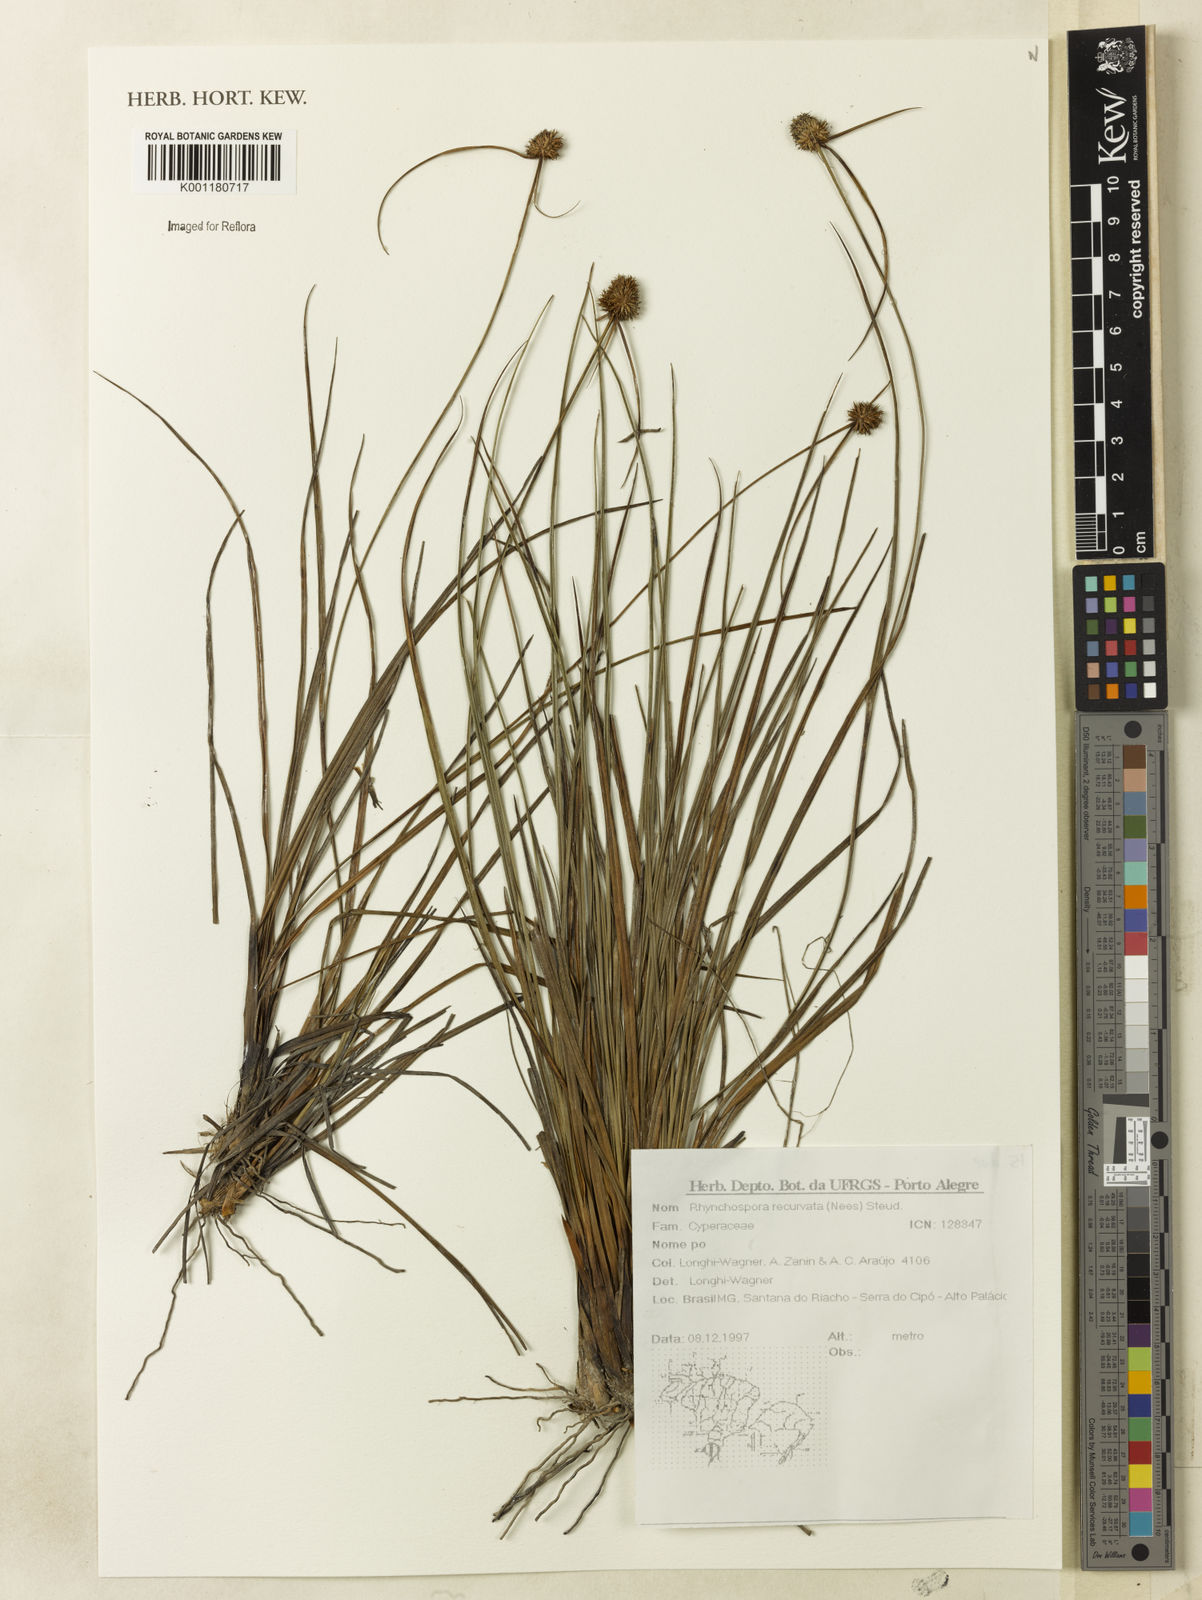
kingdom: Plantae
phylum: Tracheophyta
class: Liliopsida
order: Poales
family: Cyperaceae
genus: Rhynchospora
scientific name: Rhynchospora recurvata
